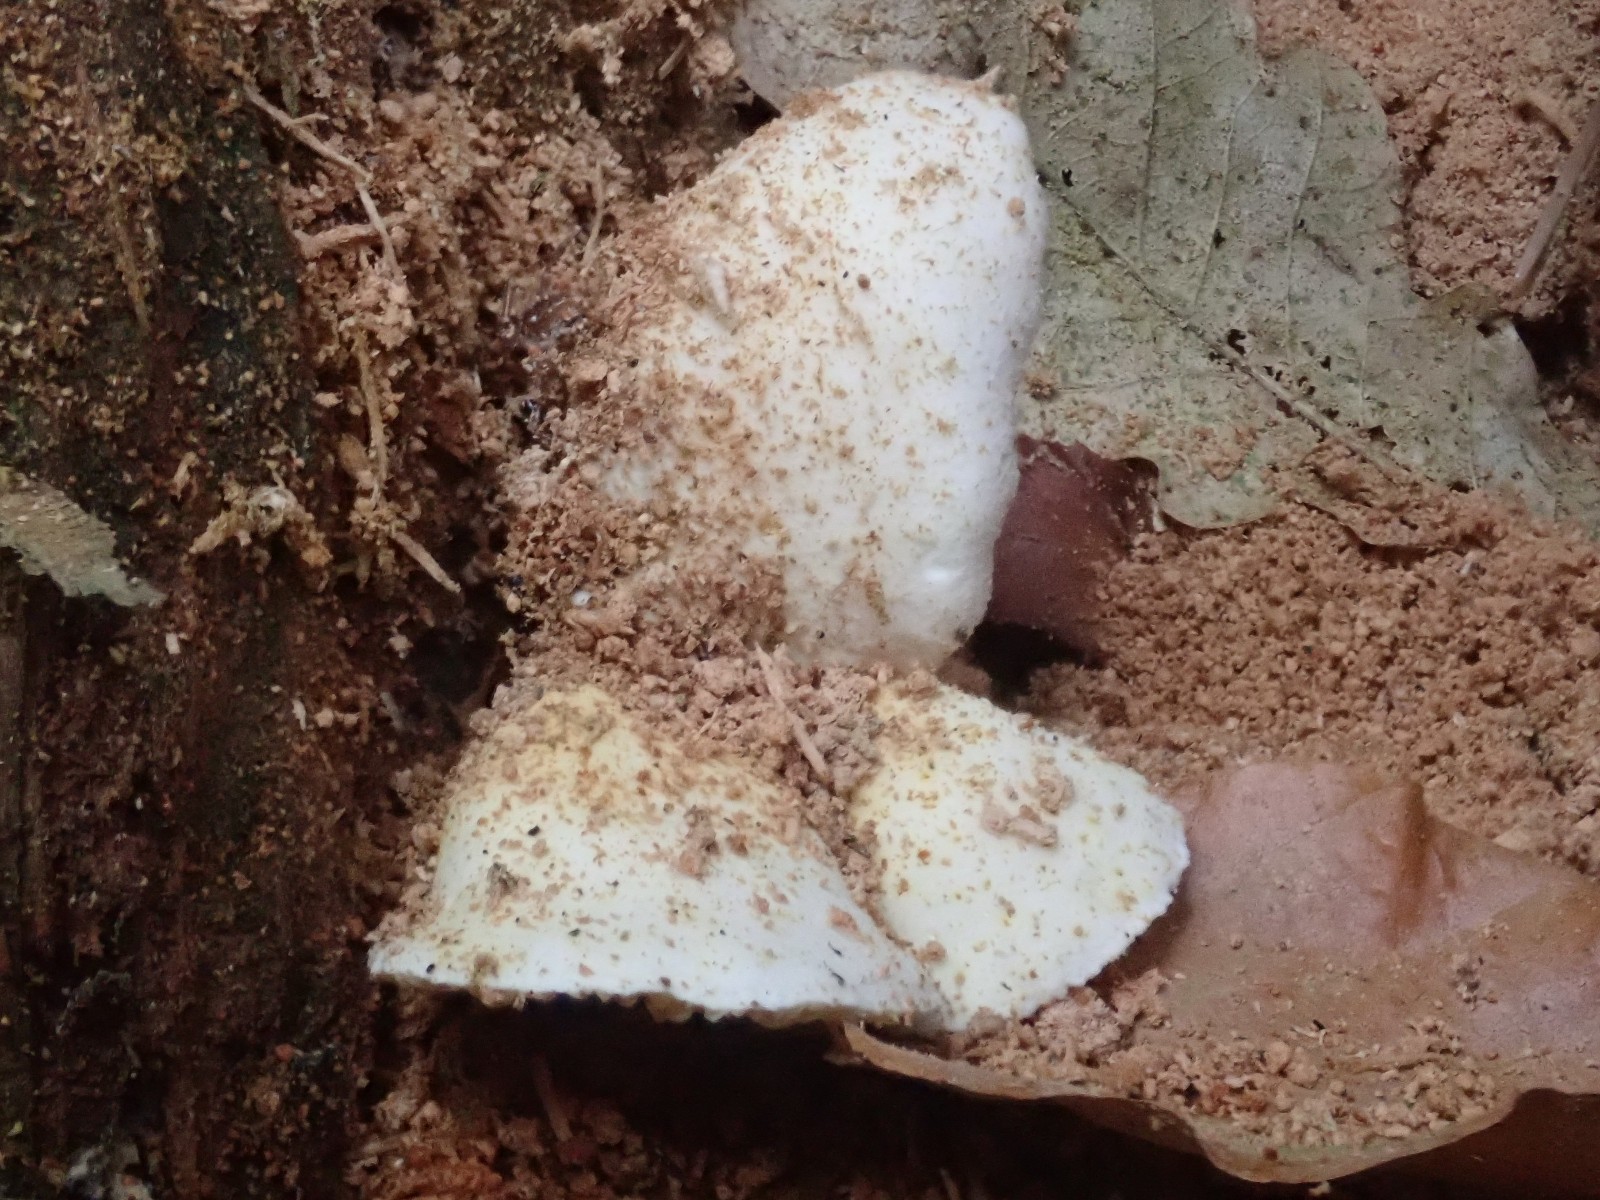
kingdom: Fungi
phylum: Basidiomycota
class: Agaricomycetes
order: Boletales
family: Hygrophoropsidaceae
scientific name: Hygrophoropsidaceae
